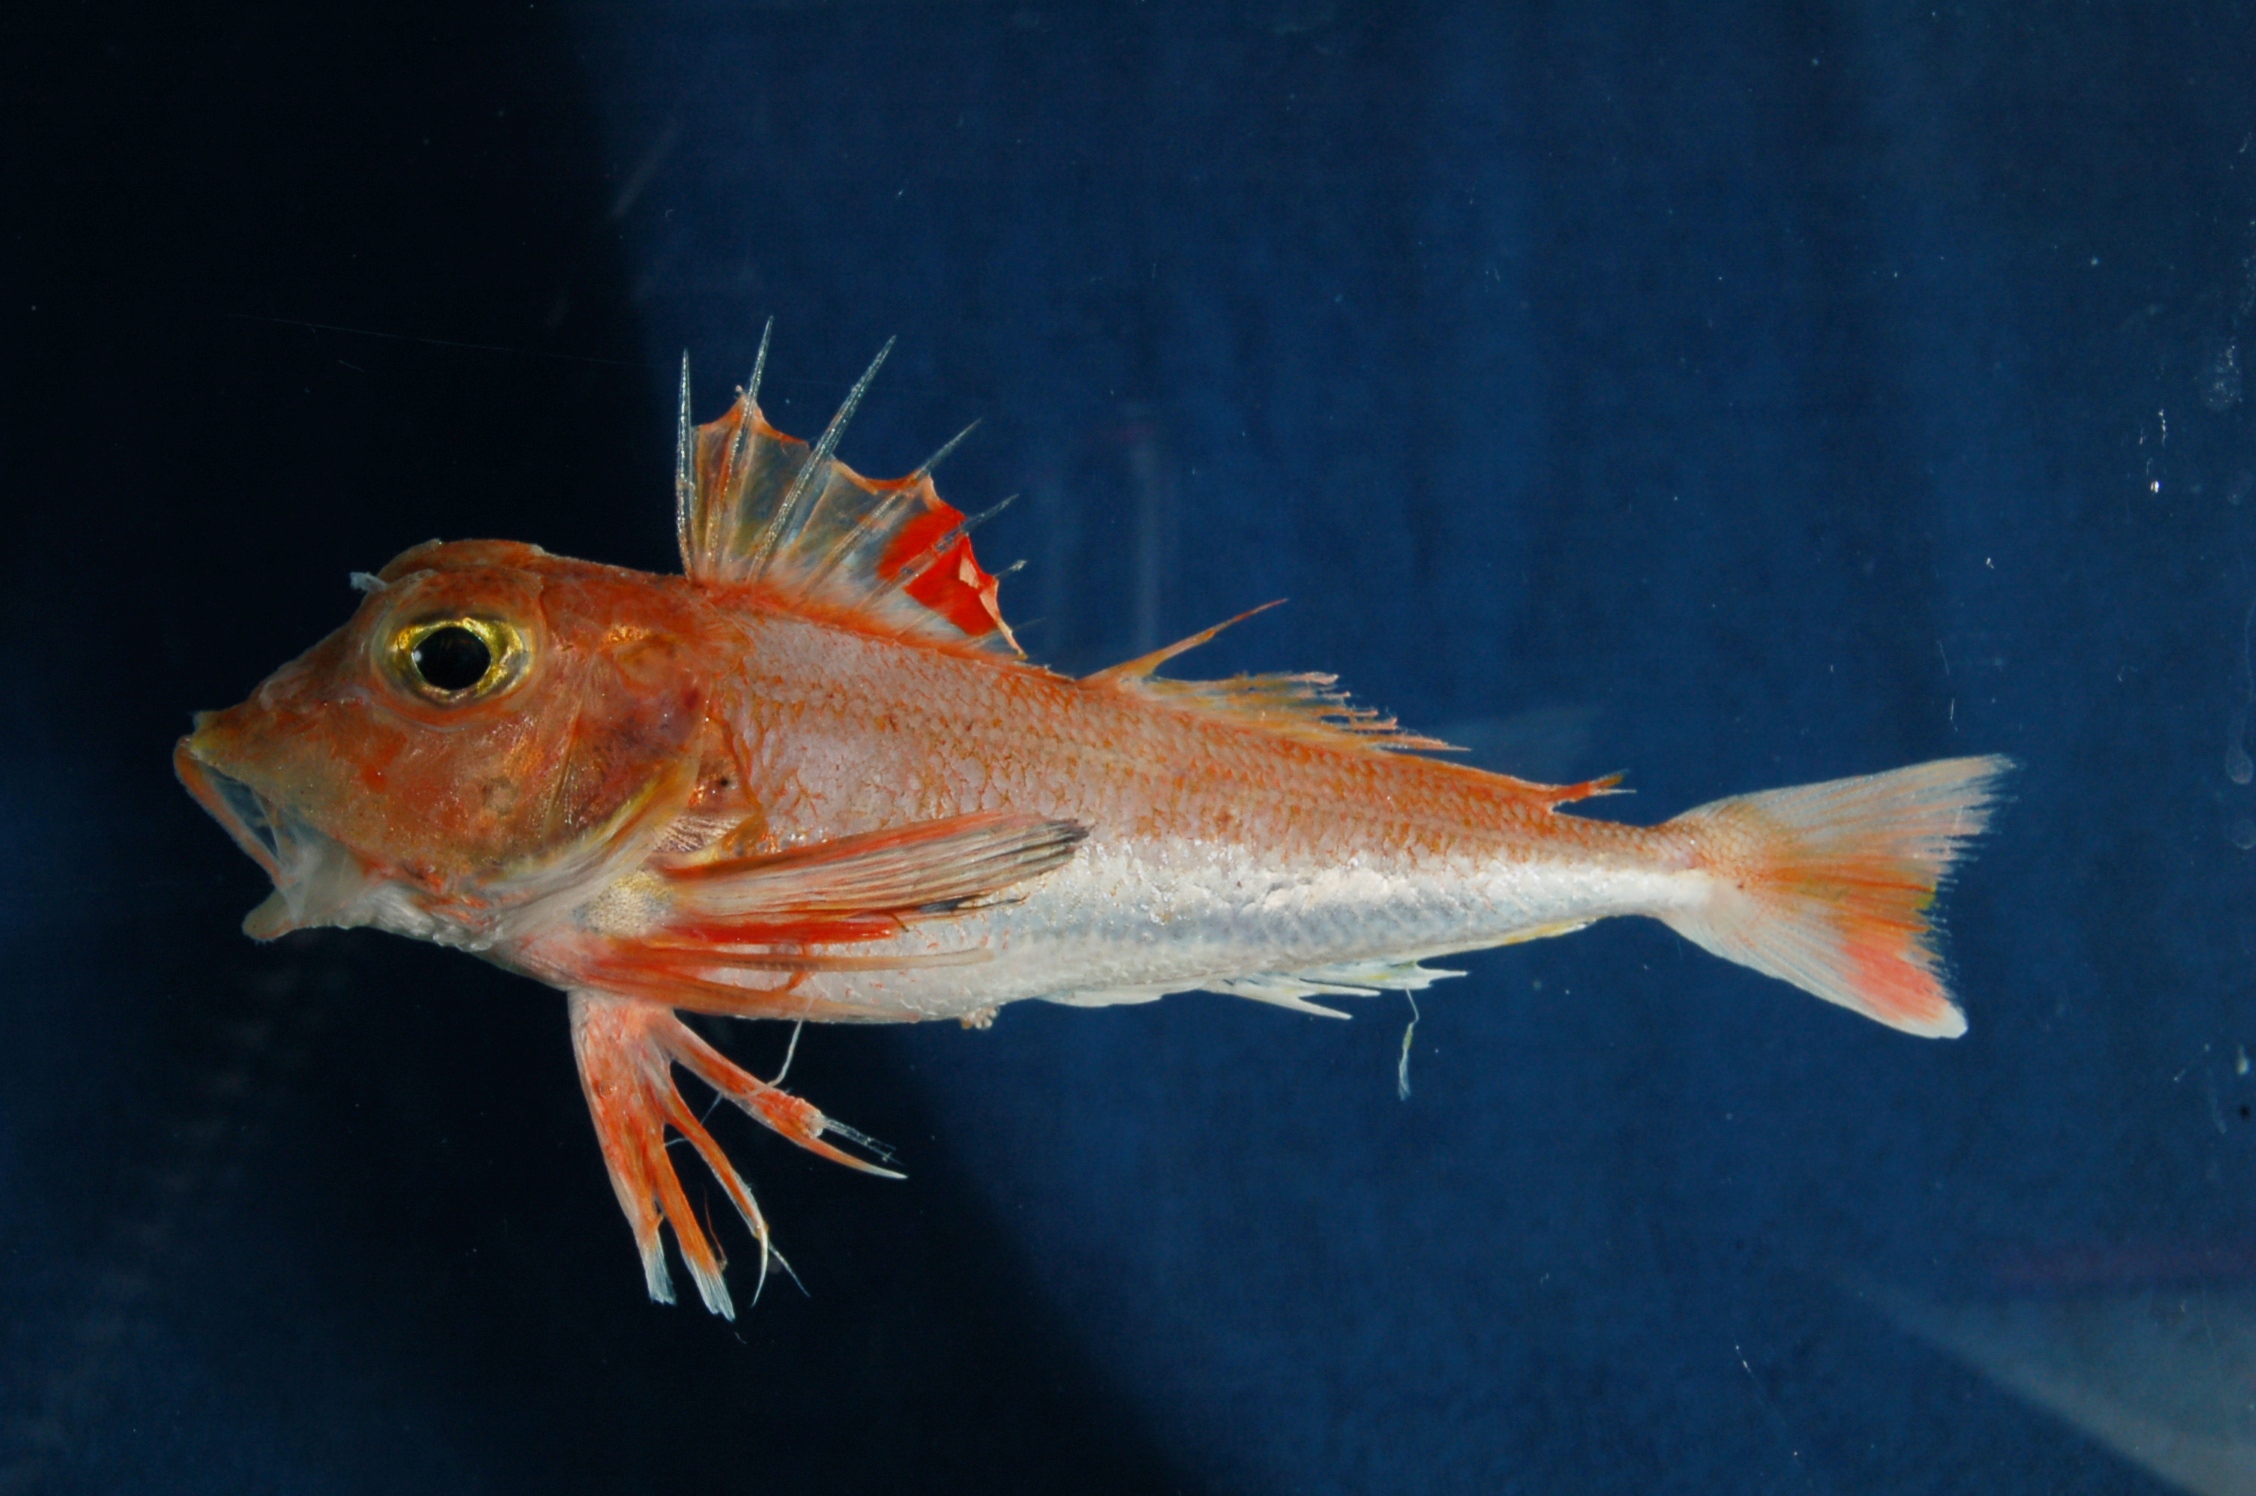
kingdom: Animalia
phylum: Chordata
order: Scorpaeniformes
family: Triglidae
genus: Lepidotrigla
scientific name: Lepidotrigla faurei
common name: Prickly gurnard
